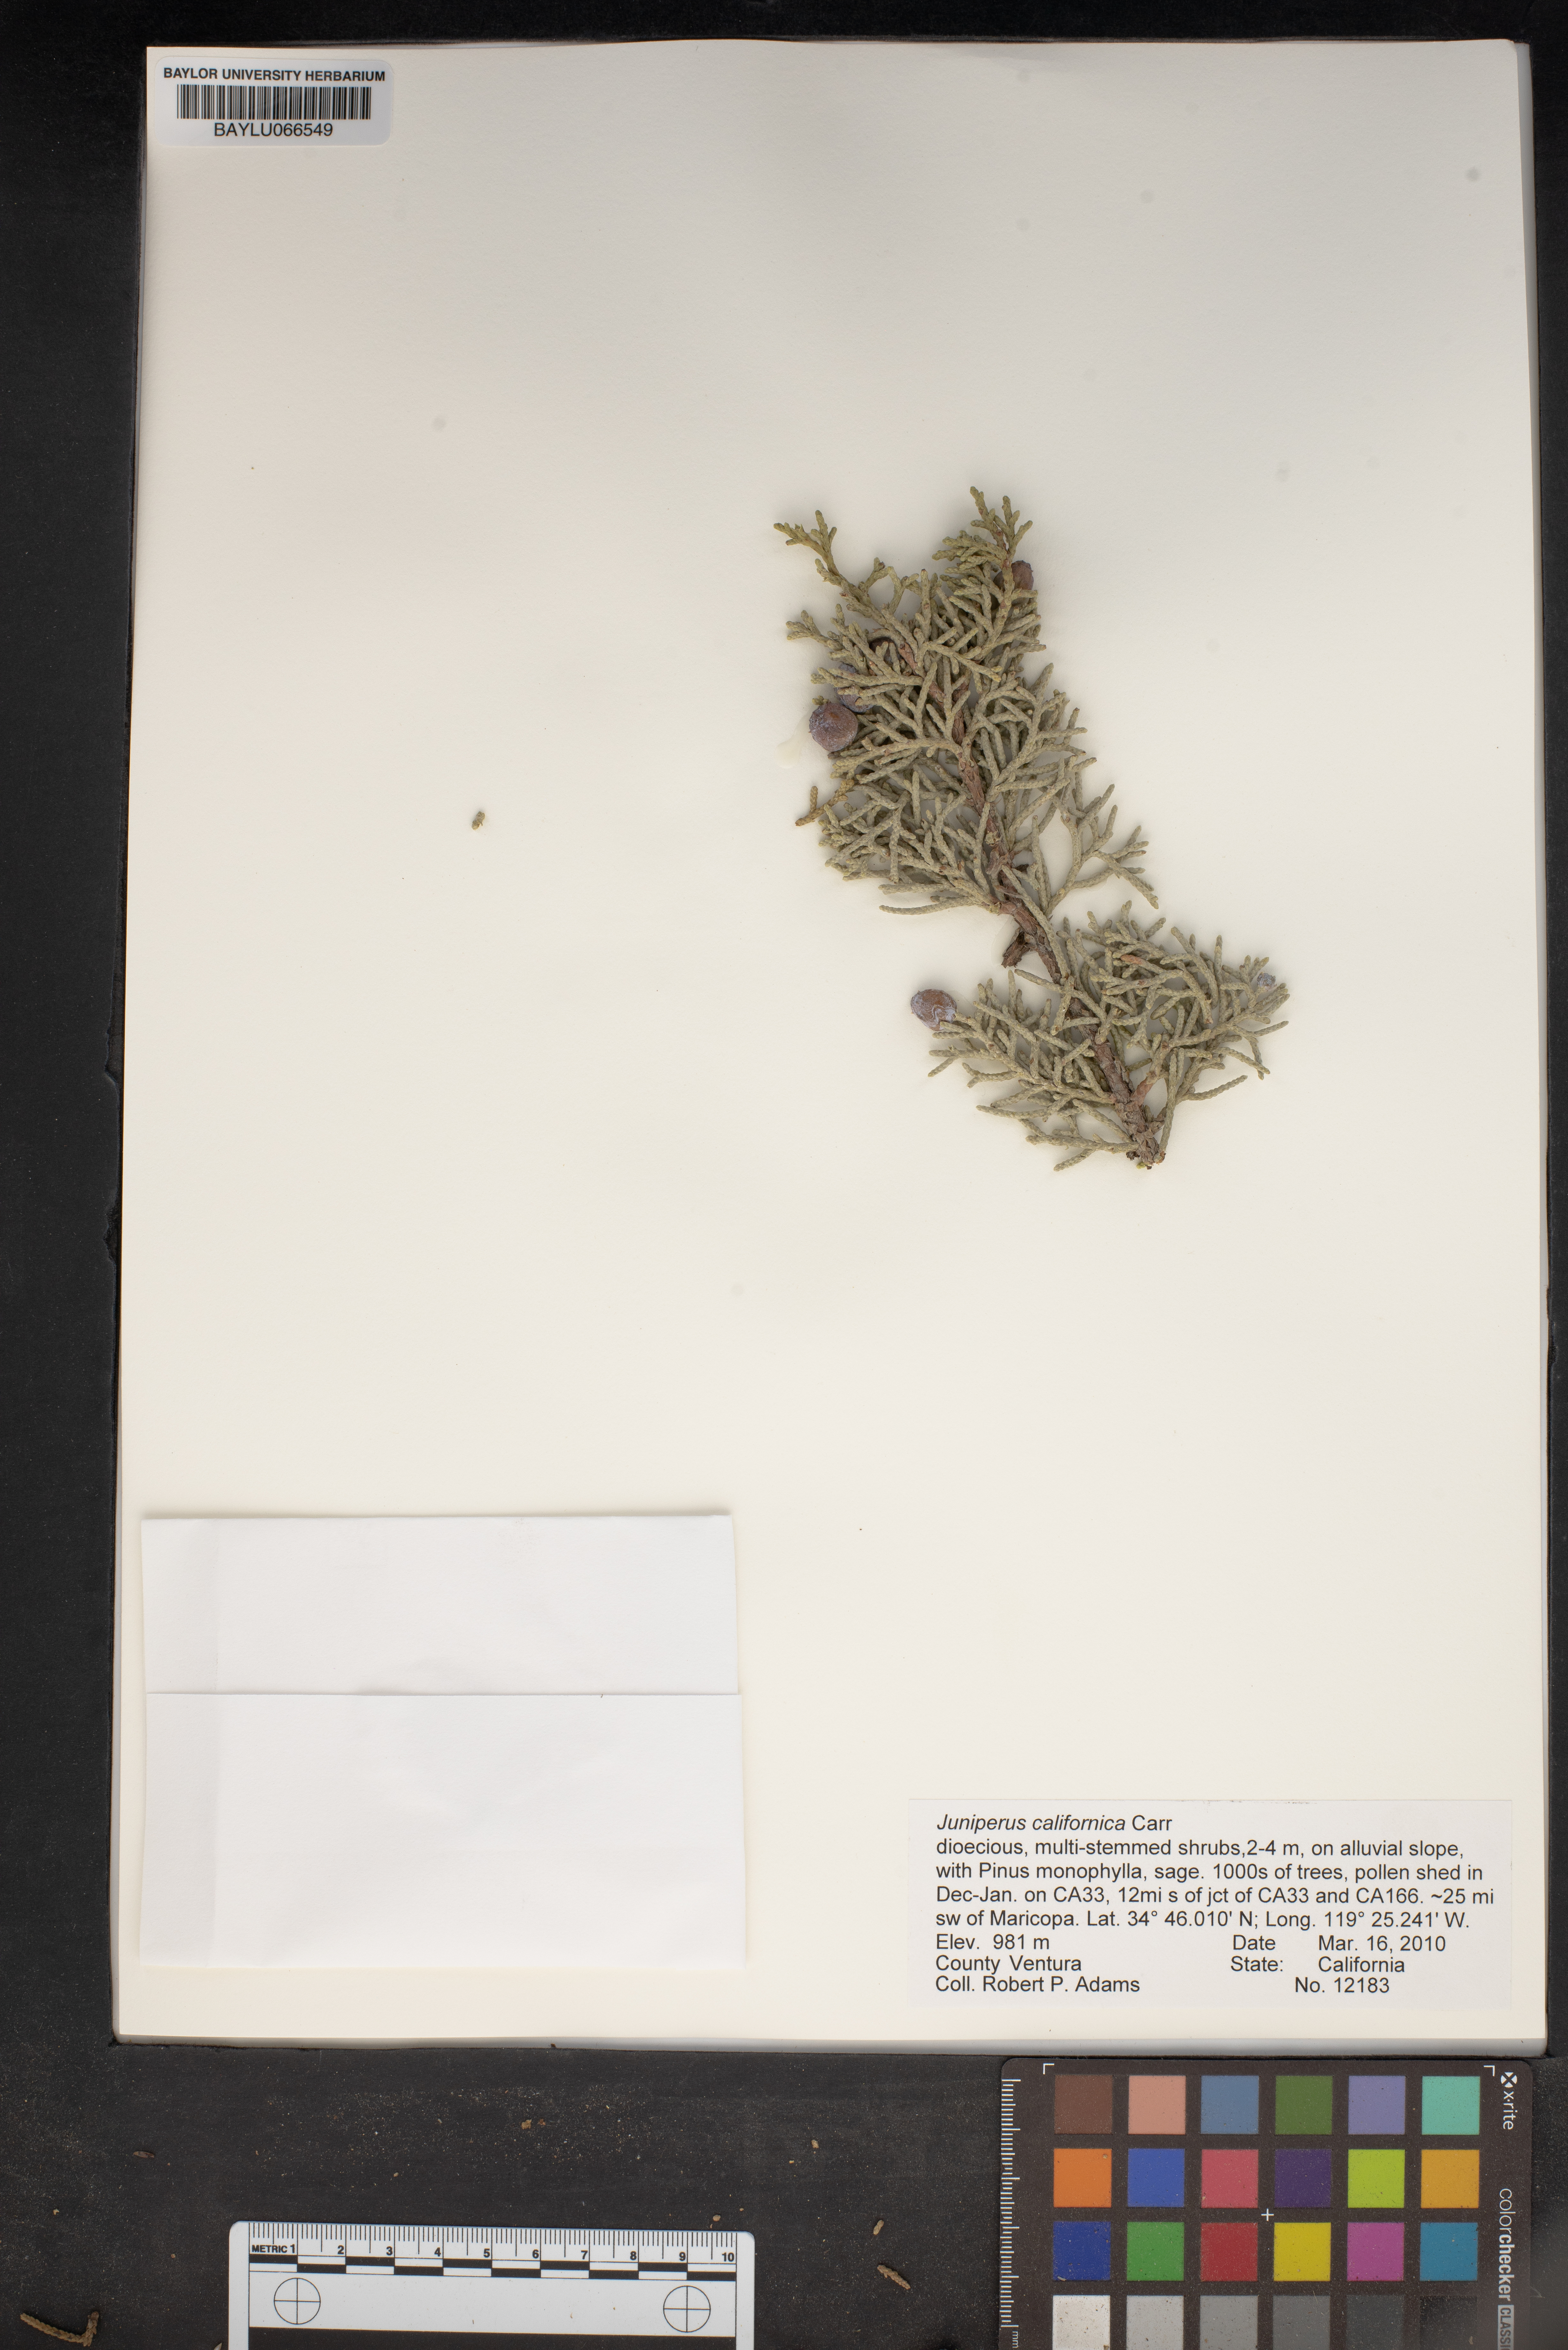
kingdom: Plantae
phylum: Tracheophyta
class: Pinopsida
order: Pinales
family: Cupressaceae
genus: Juniperus
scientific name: Juniperus californica
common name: California juniper
